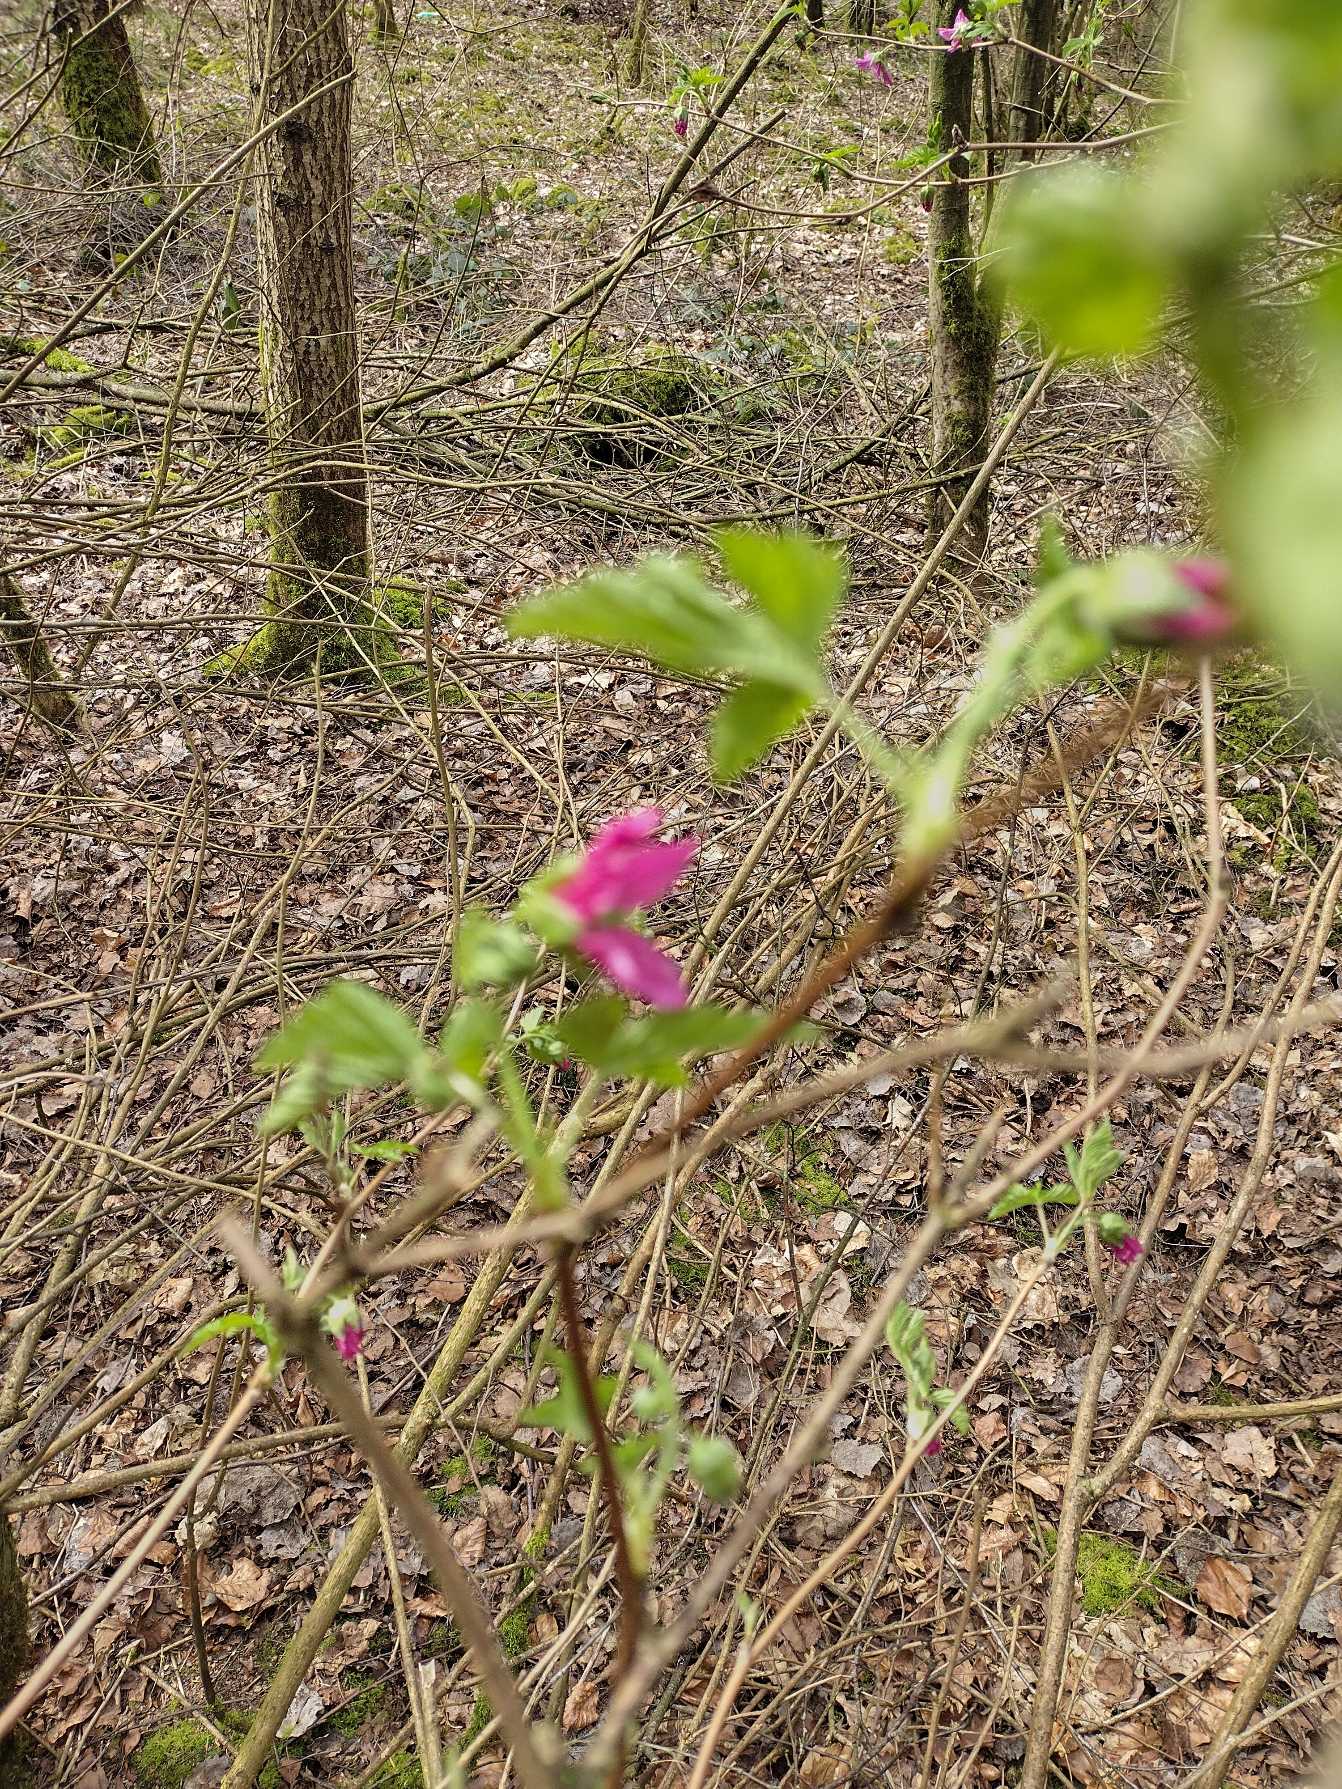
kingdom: Plantae
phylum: Tracheophyta
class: Magnoliopsida
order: Rosales
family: Rosaceae
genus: Rubus
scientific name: Rubus spectabilis
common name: Laksebær
